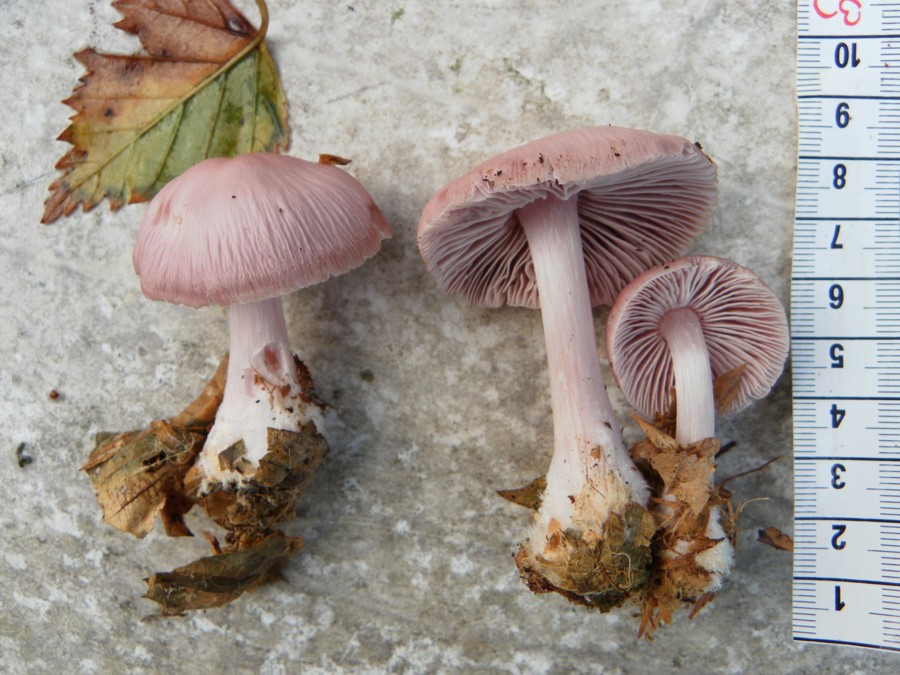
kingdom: Fungi
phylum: Basidiomycota
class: Agaricomycetes
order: Agaricales
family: Mycenaceae
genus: Mycena
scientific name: Mycena rosea
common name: rosa huesvamp
